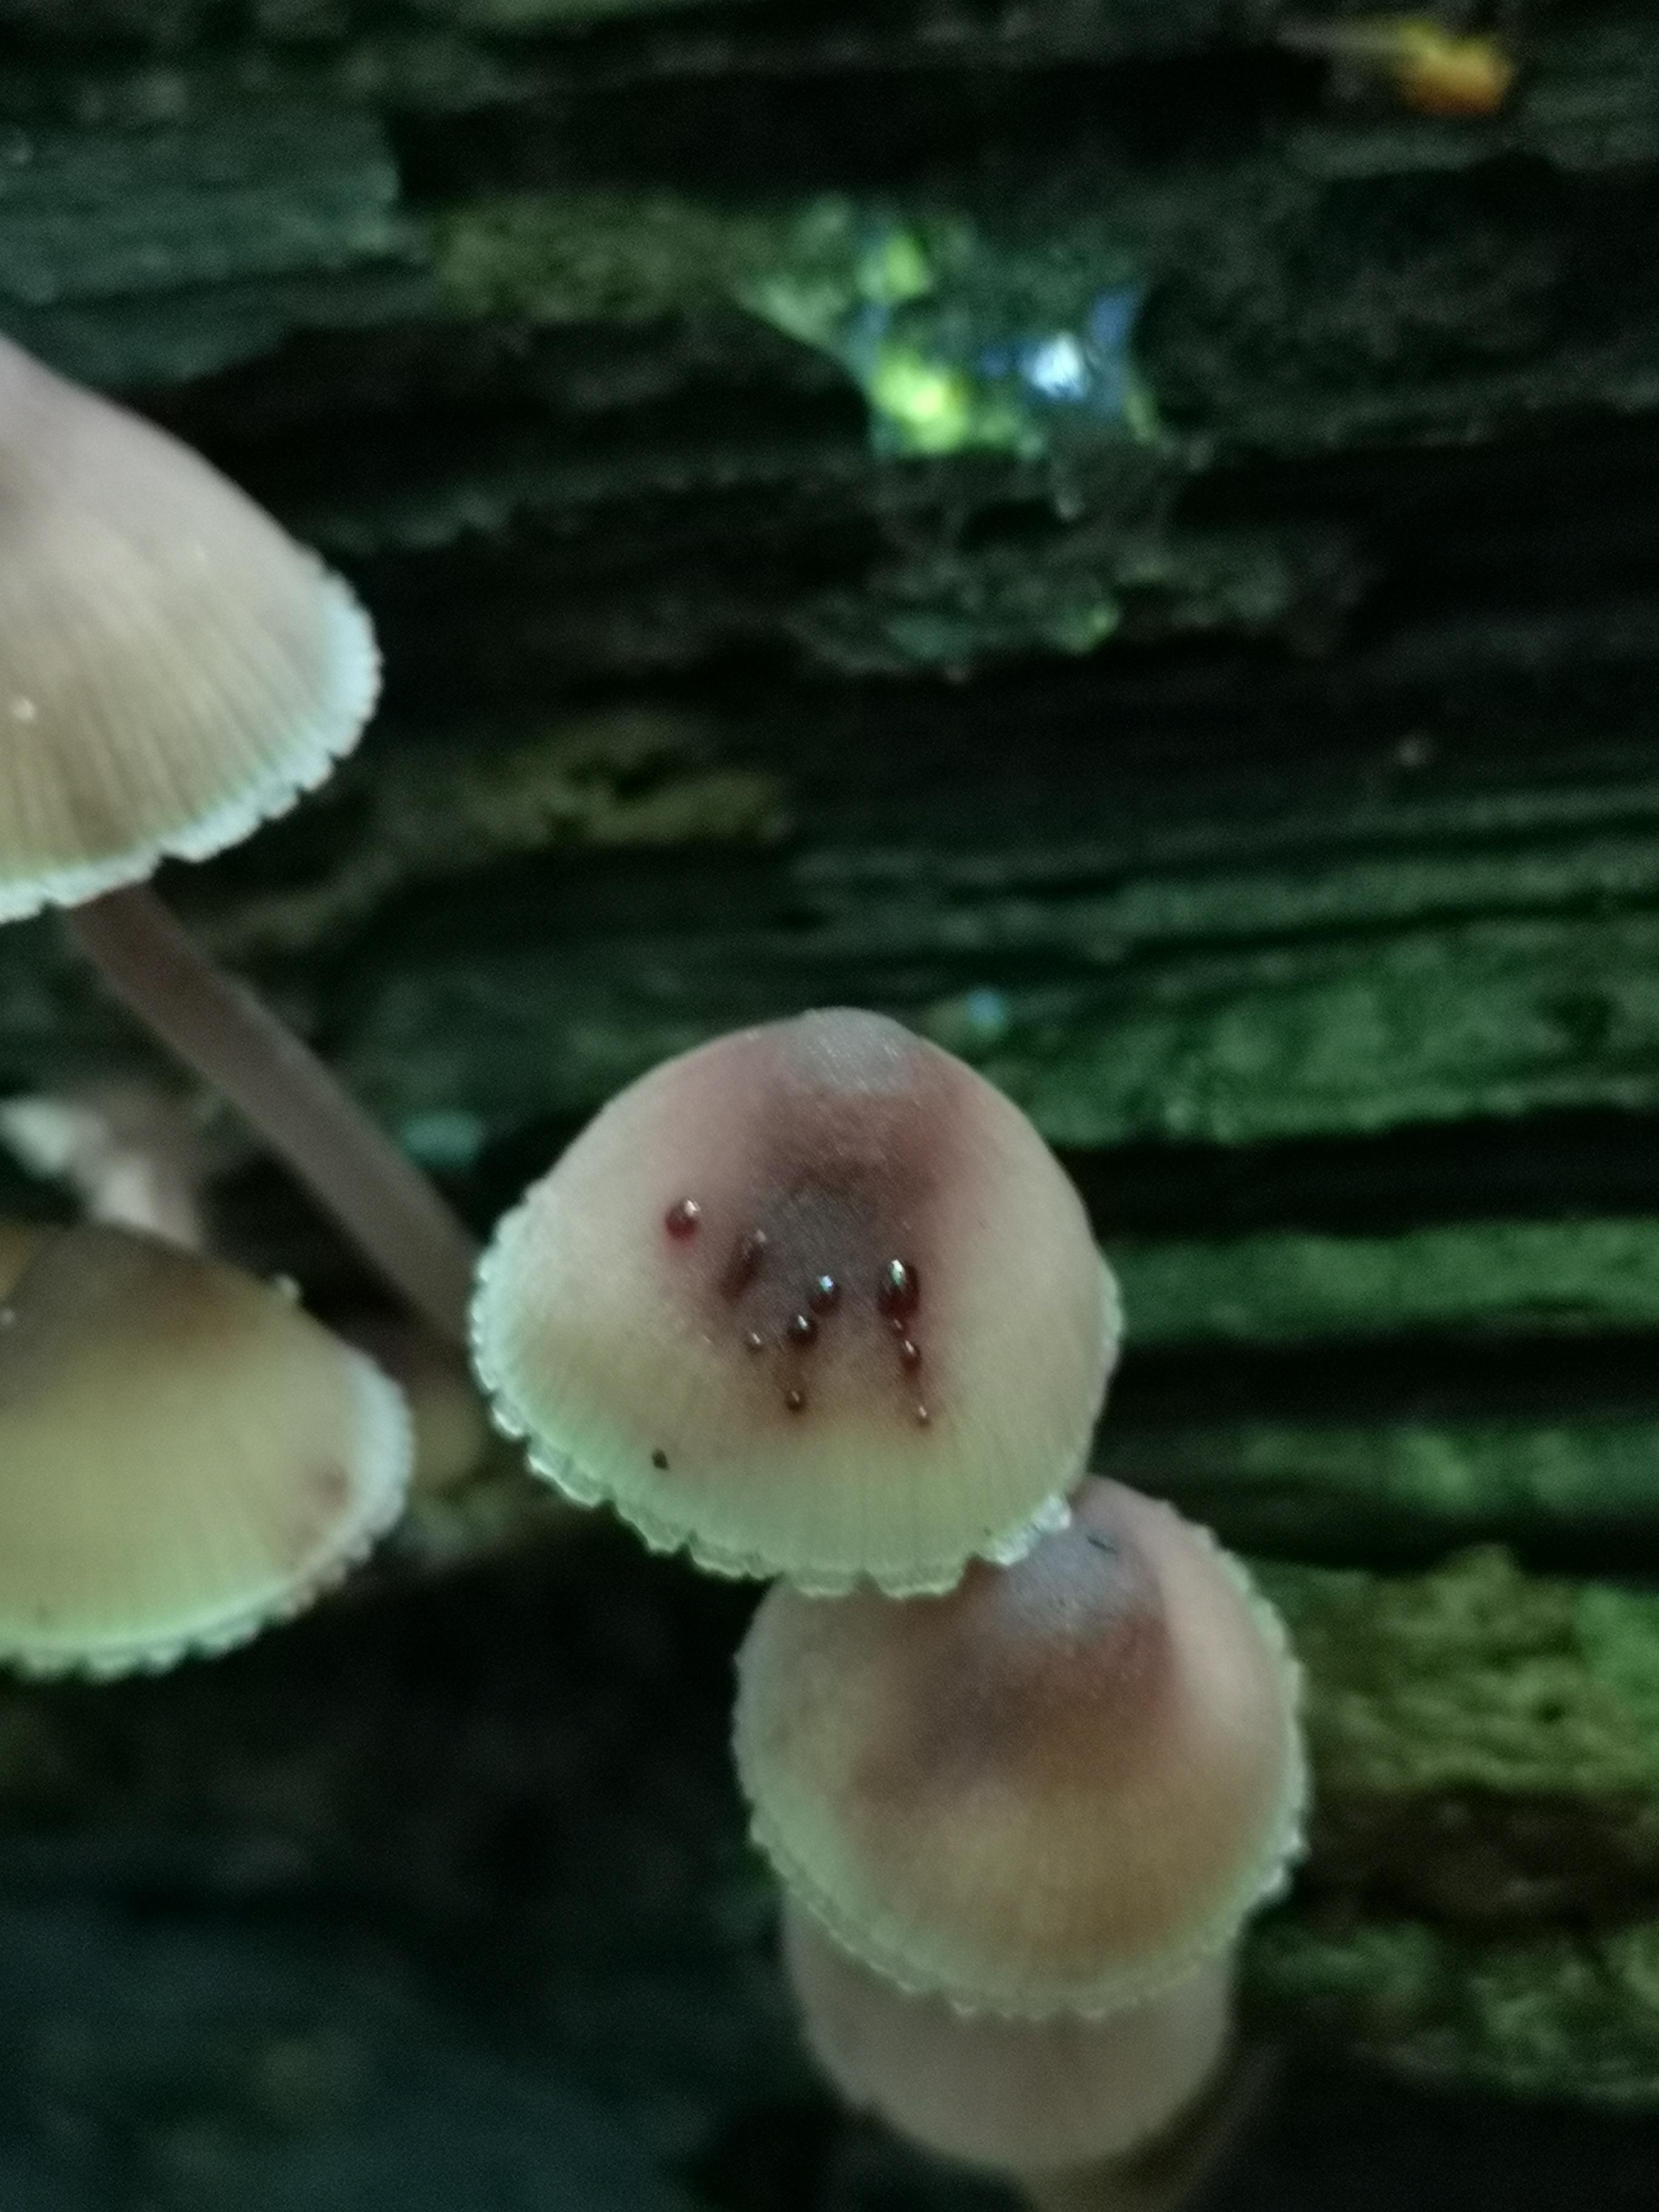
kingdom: Fungi
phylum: Basidiomycota
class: Agaricomycetes
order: Agaricales
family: Mycenaceae
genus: Mycena
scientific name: Mycena haematopus
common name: blødende huesvamp
